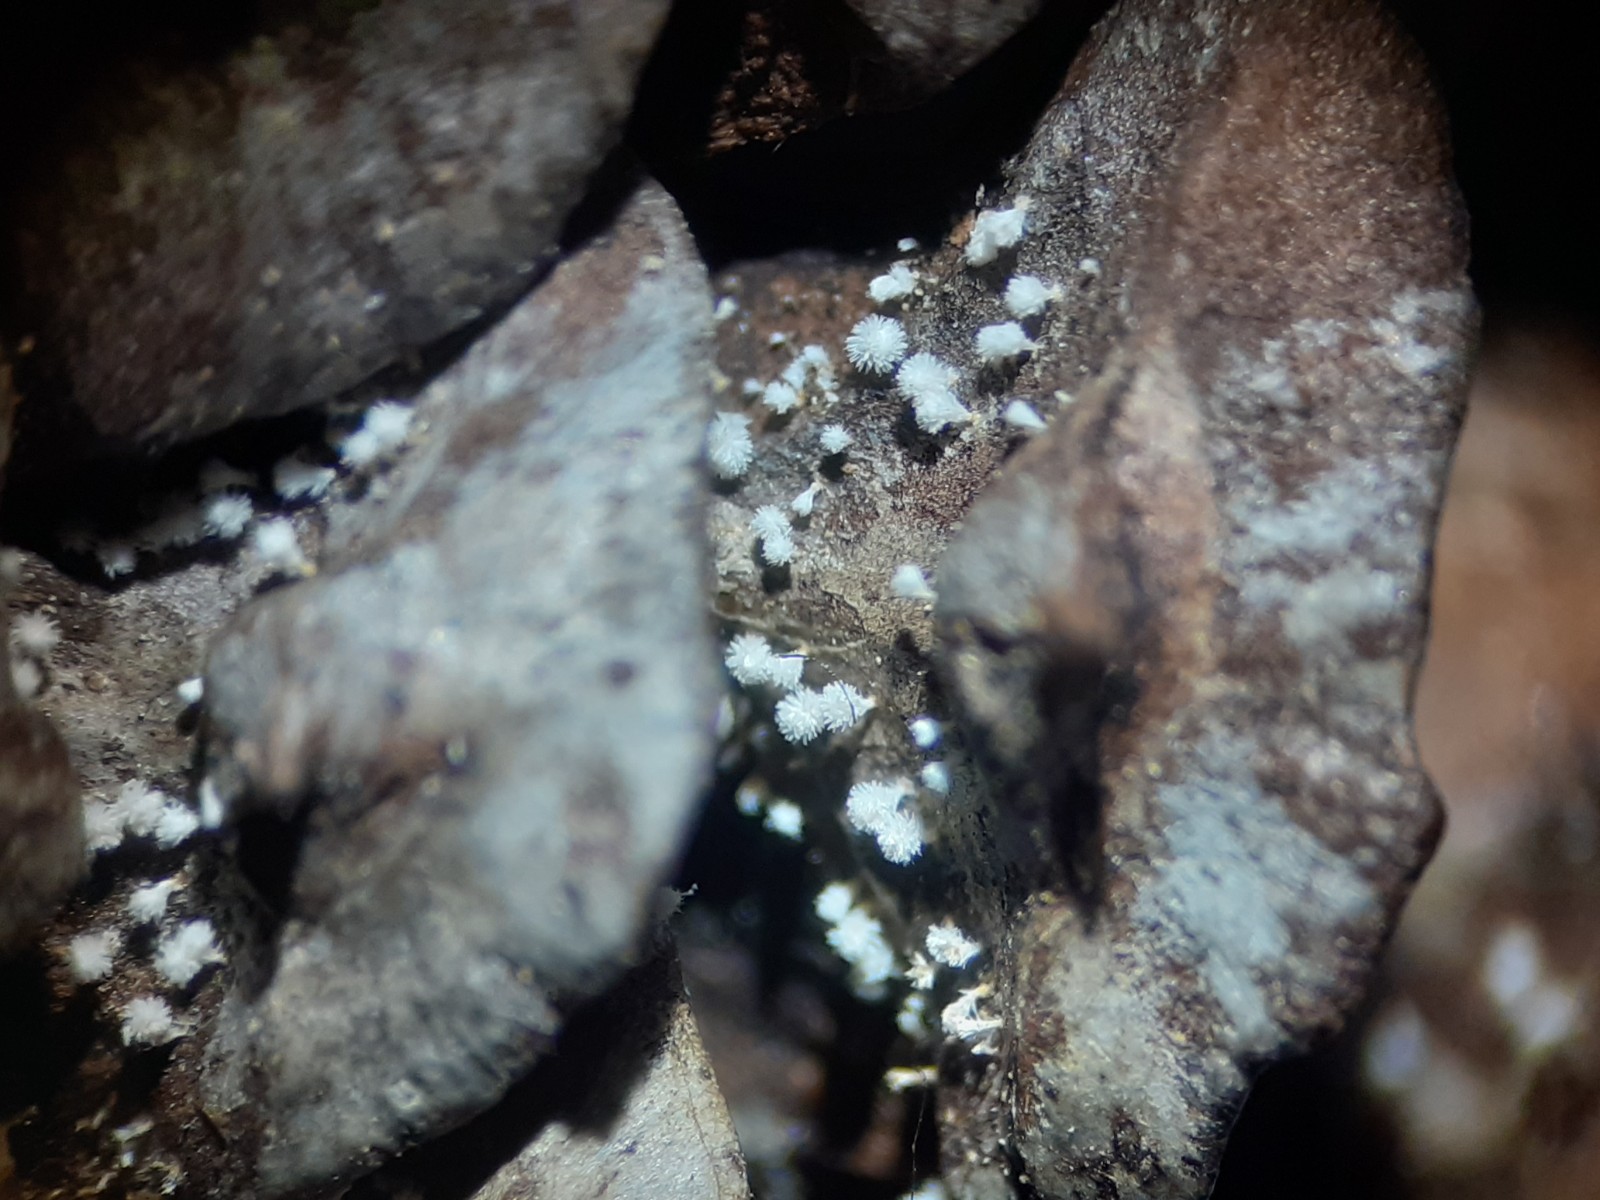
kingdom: Fungi
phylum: Ascomycota
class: Leotiomycetes
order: Helotiales
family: Lachnaceae
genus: Lachnum
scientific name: Lachnum virgineum
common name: jomfru-frynseskive
